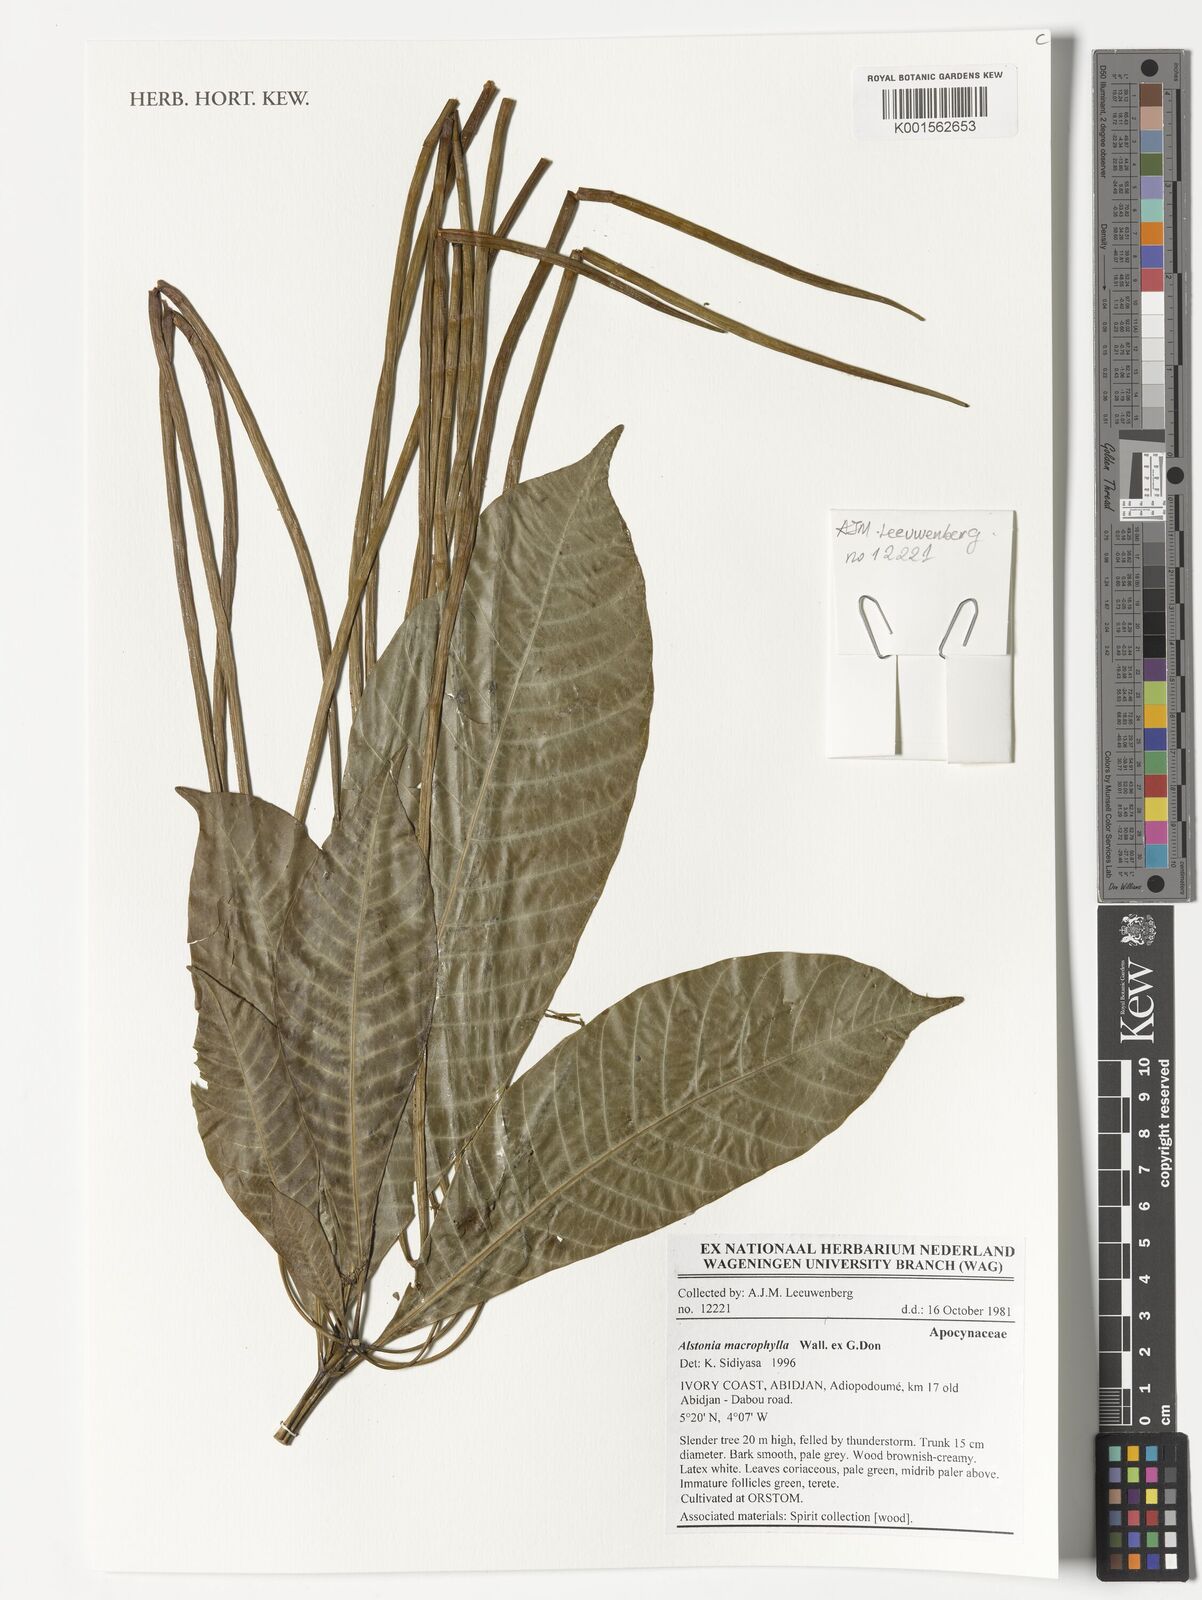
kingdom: Plantae
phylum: Tracheophyta
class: Magnoliopsida
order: Gentianales
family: Apocynaceae
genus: Alstonia
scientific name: Alstonia macrophylla
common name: Deviltree
